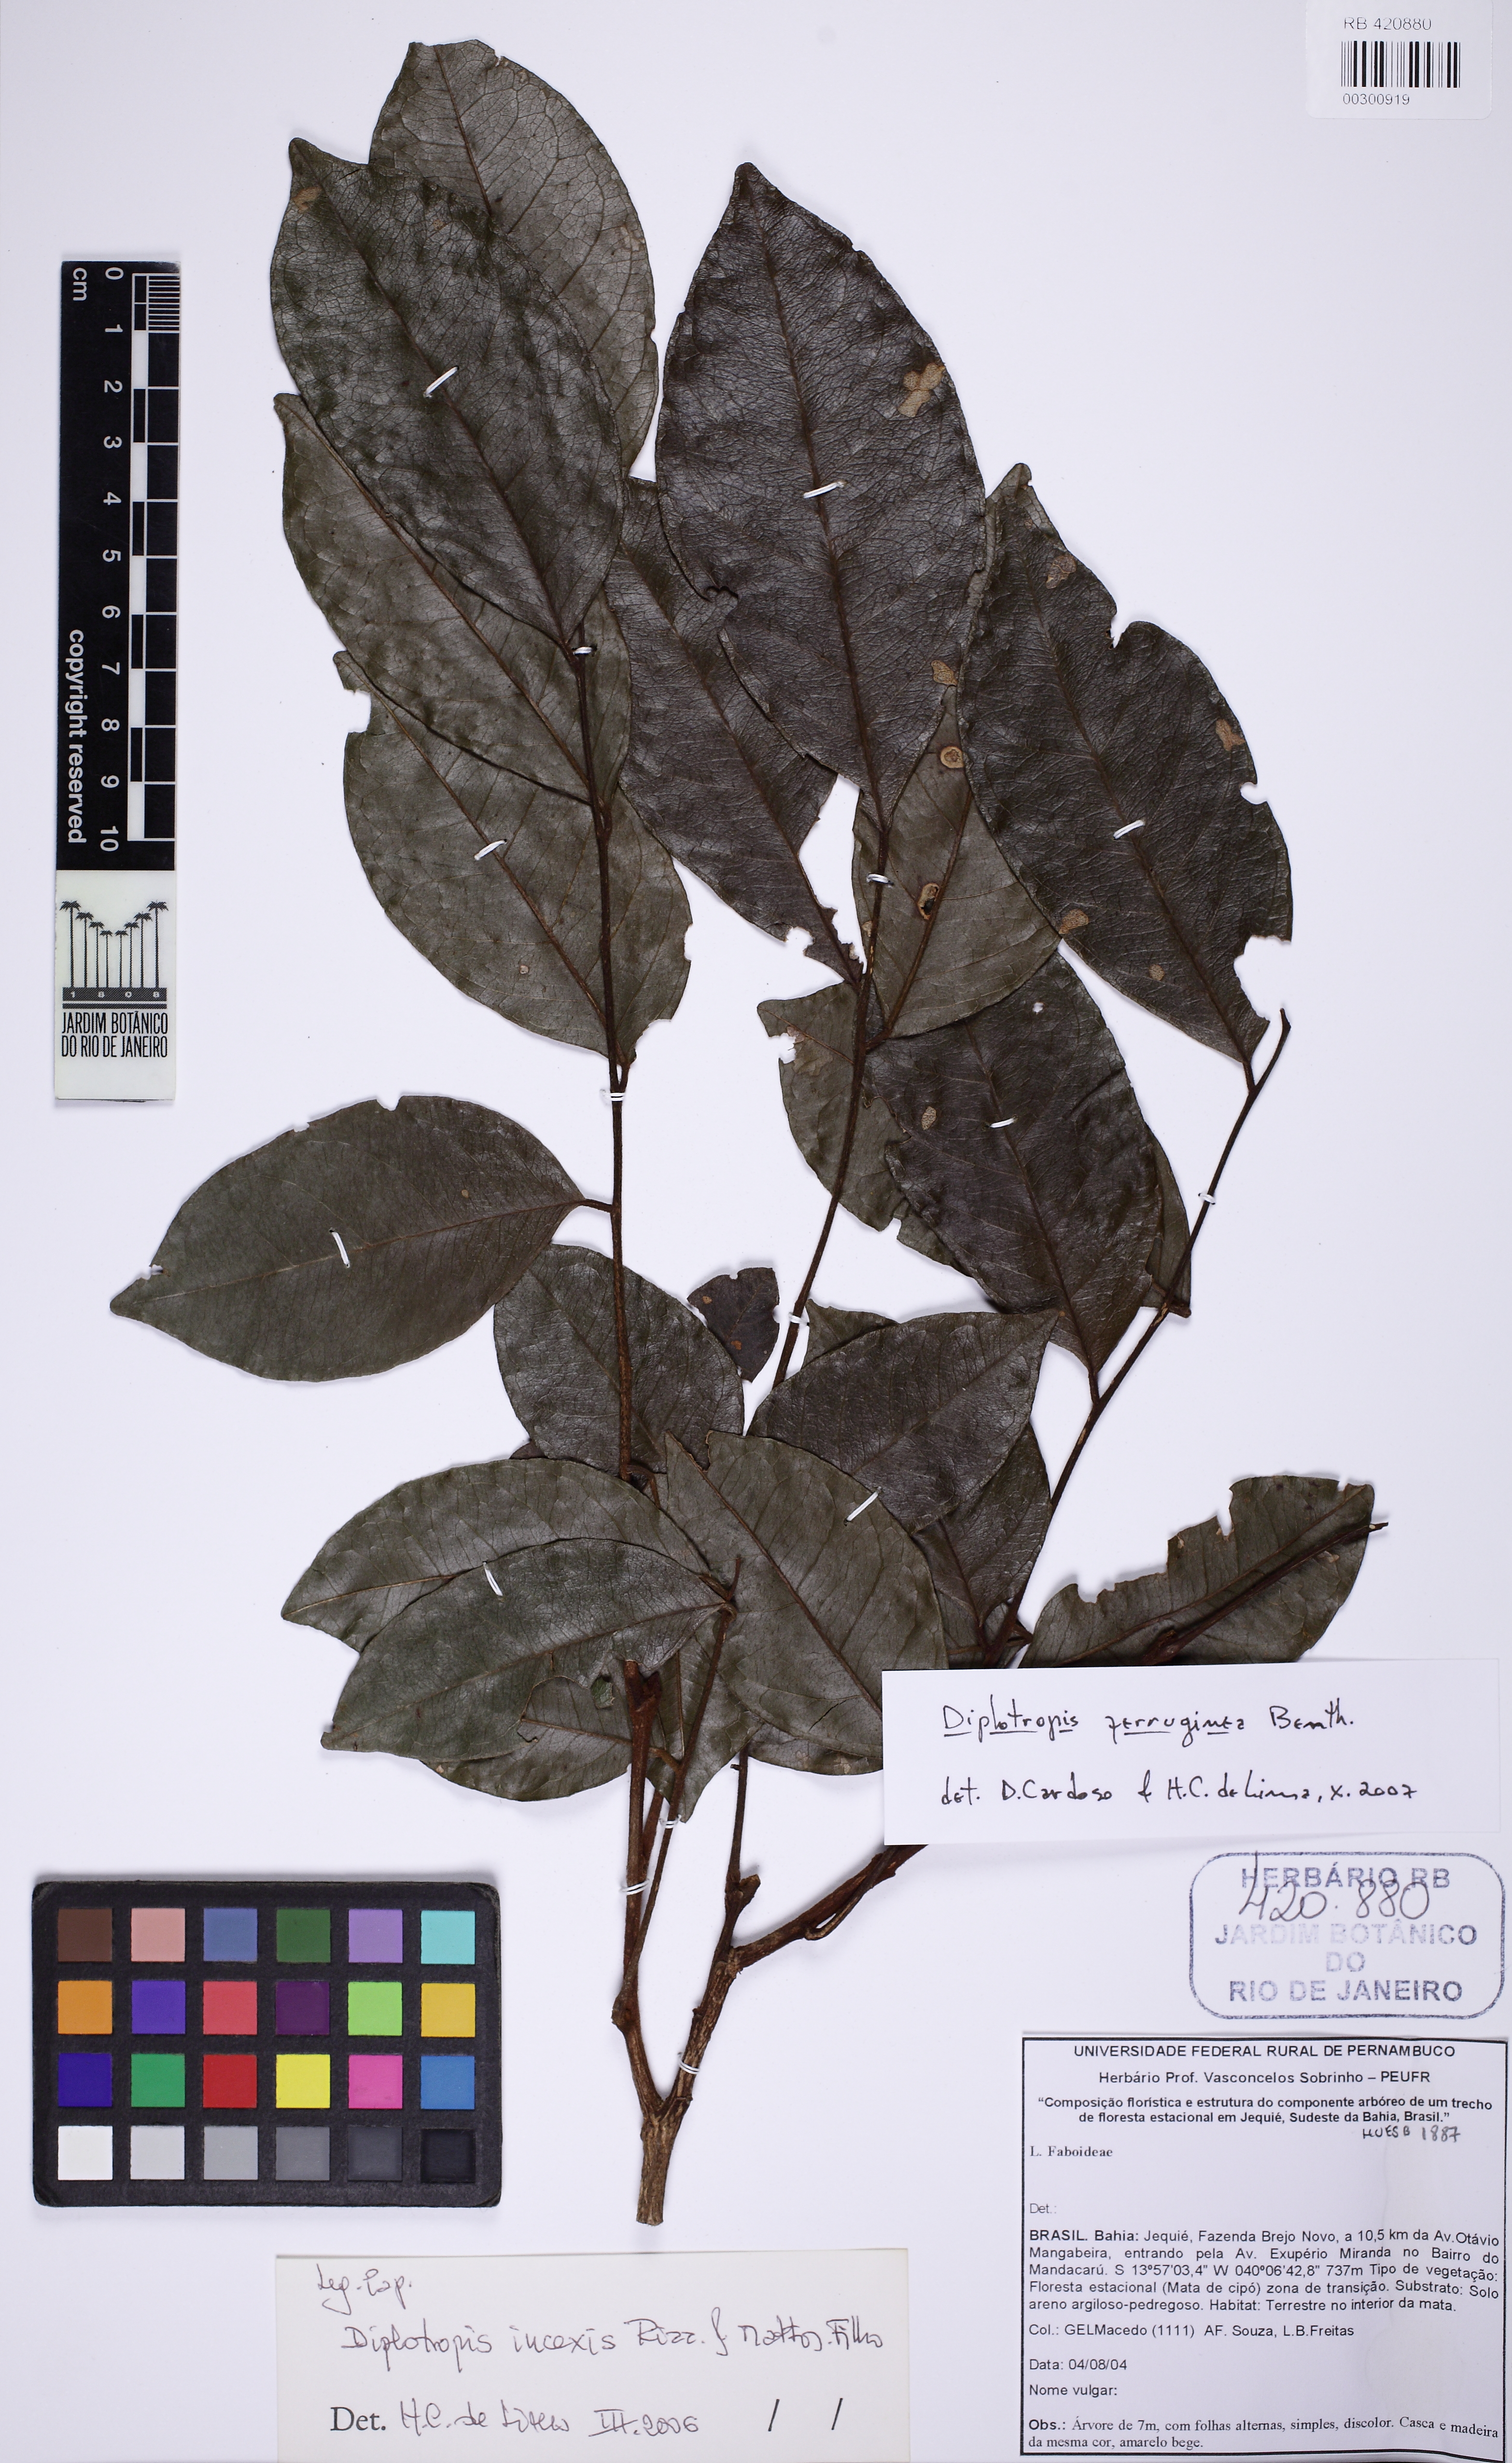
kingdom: Plantae
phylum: Tracheophyta
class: Magnoliopsida
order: Fabales
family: Fabaceae
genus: Diplotropis
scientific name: Diplotropis ferruginea
